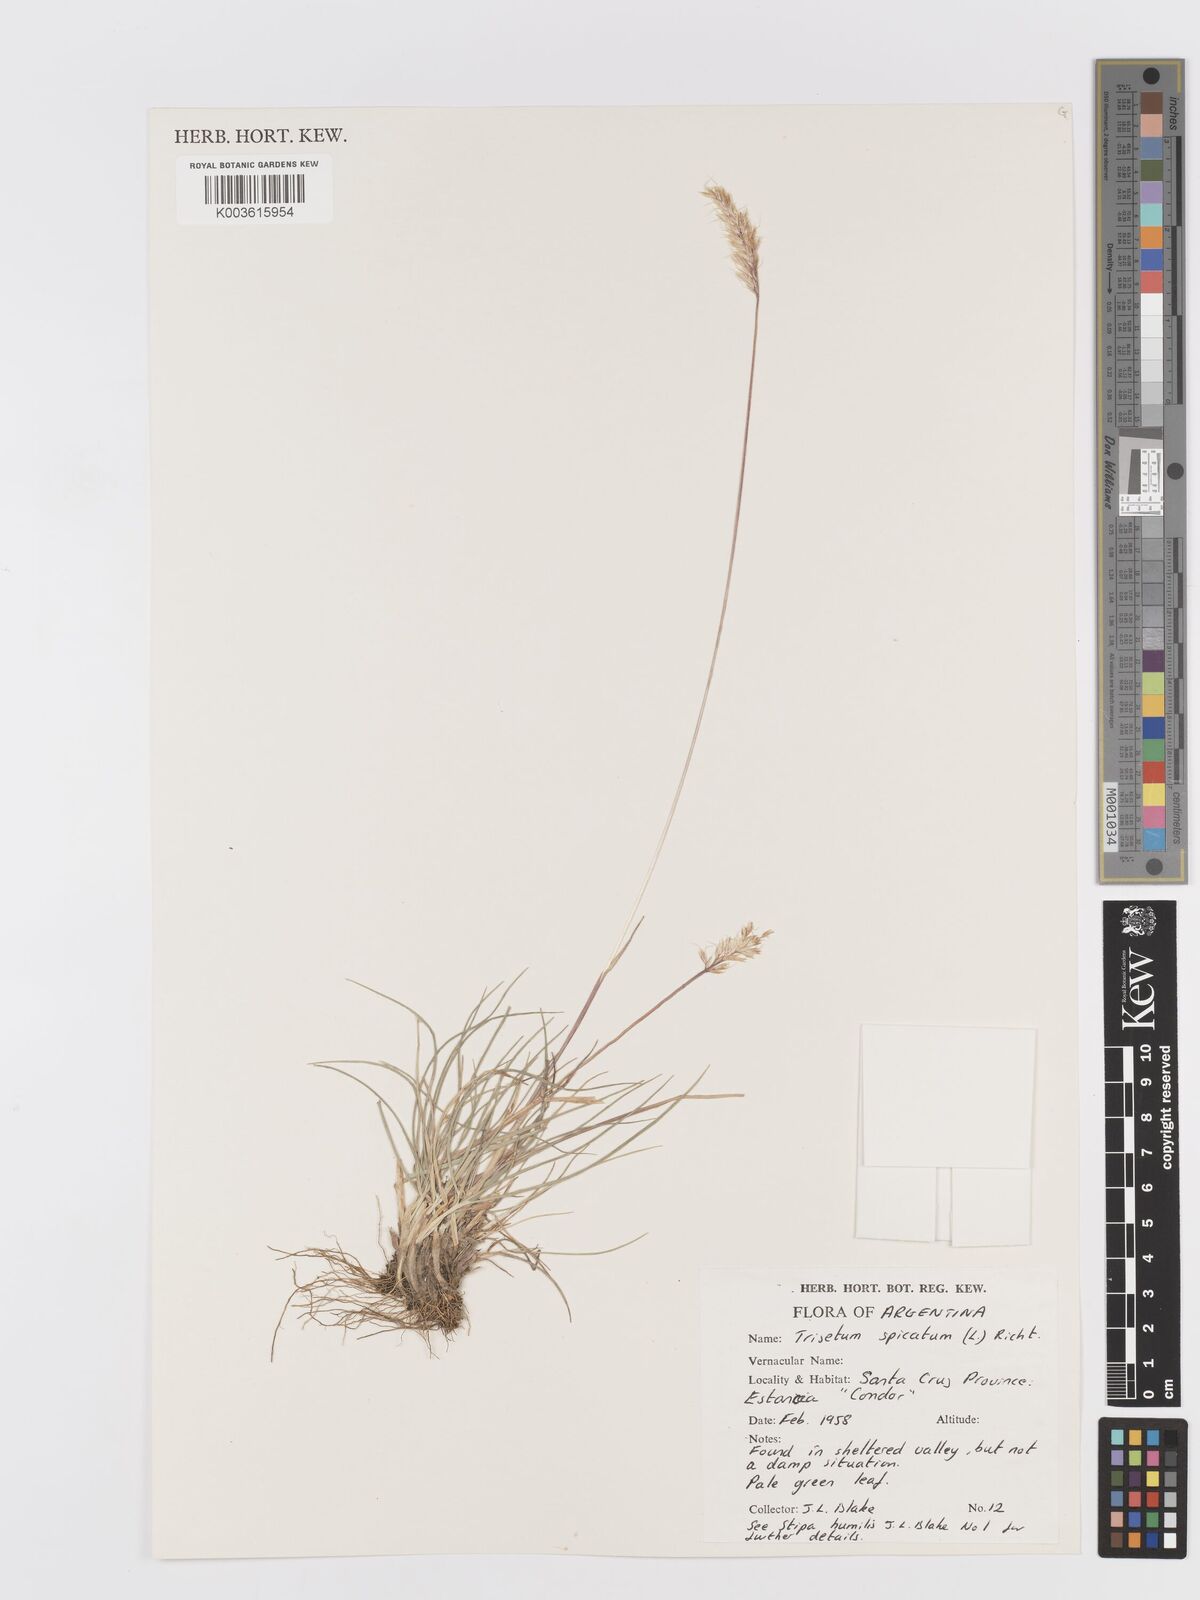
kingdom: Plantae
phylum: Tracheophyta
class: Liliopsida
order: Poales
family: Poaceae
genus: Koeleria
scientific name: Koeleria spicata
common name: Mountain trisetum
